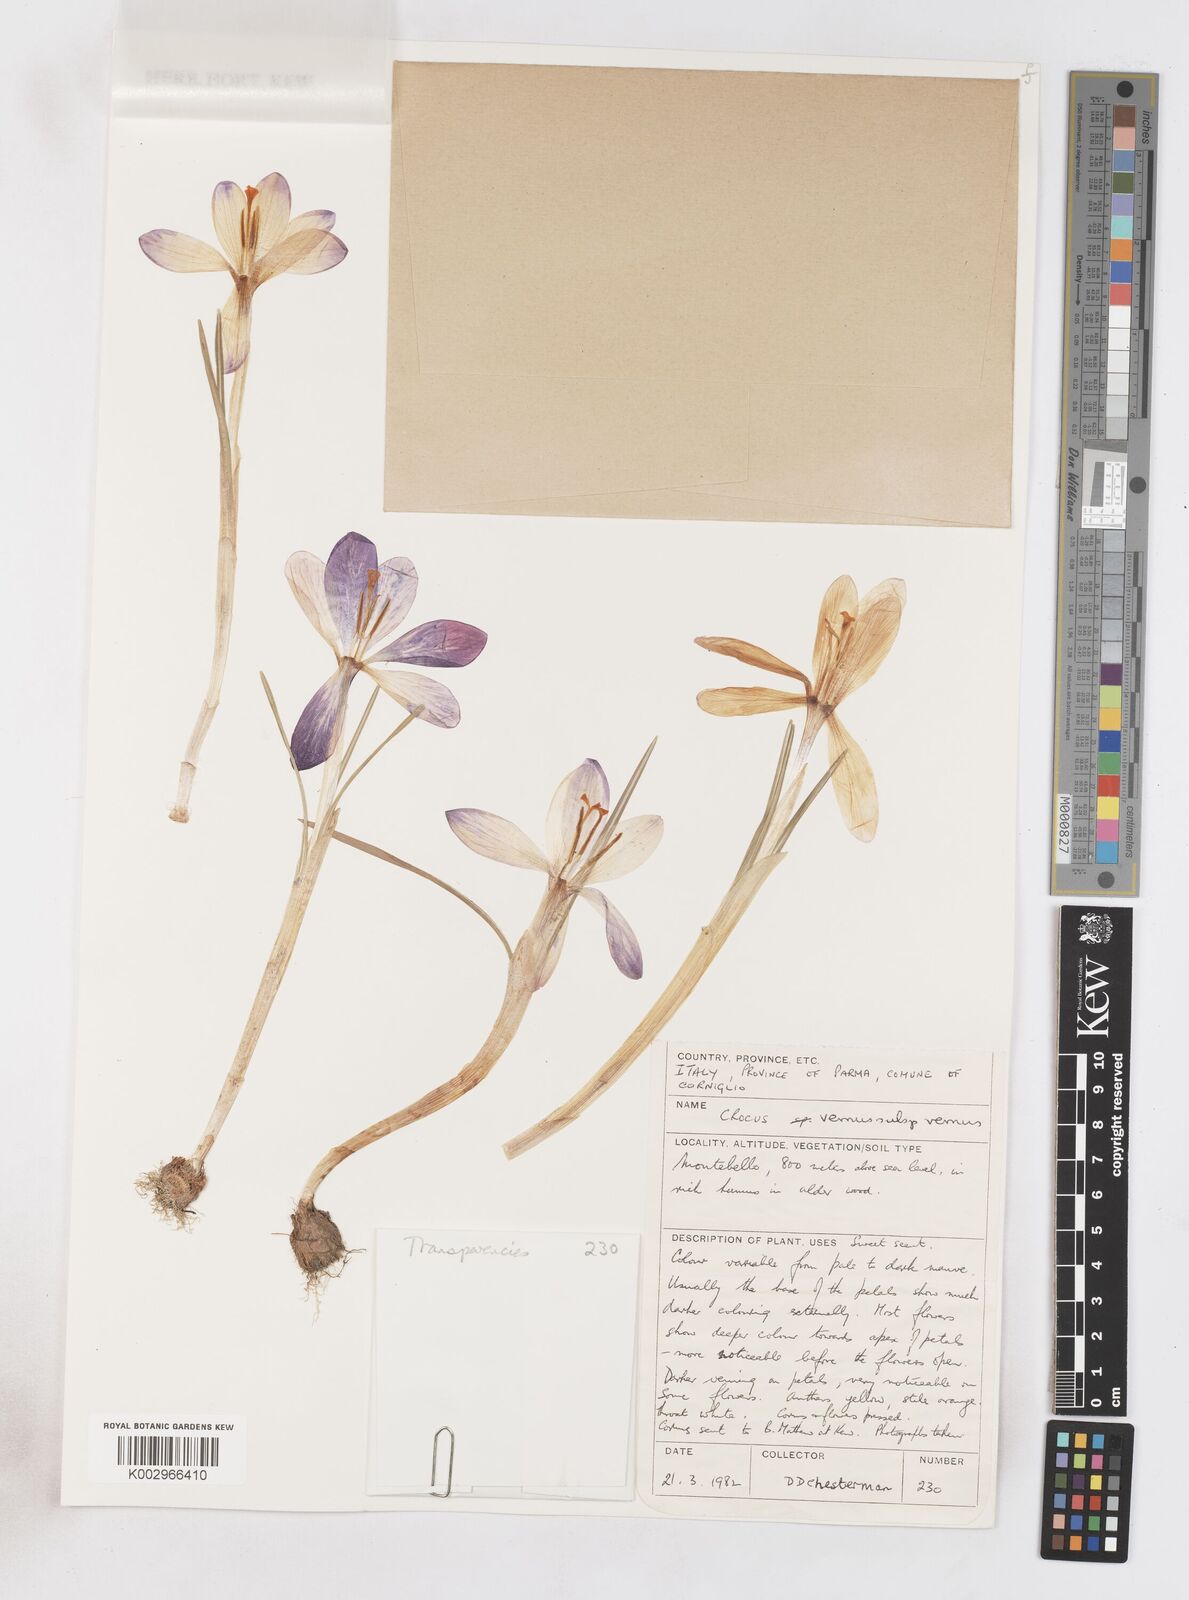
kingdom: Plantae
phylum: Tracheophyta
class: Liliopsida
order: Asparagales
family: Iridaceae
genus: Crocus
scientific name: Crocus vernus
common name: Spring crocus
